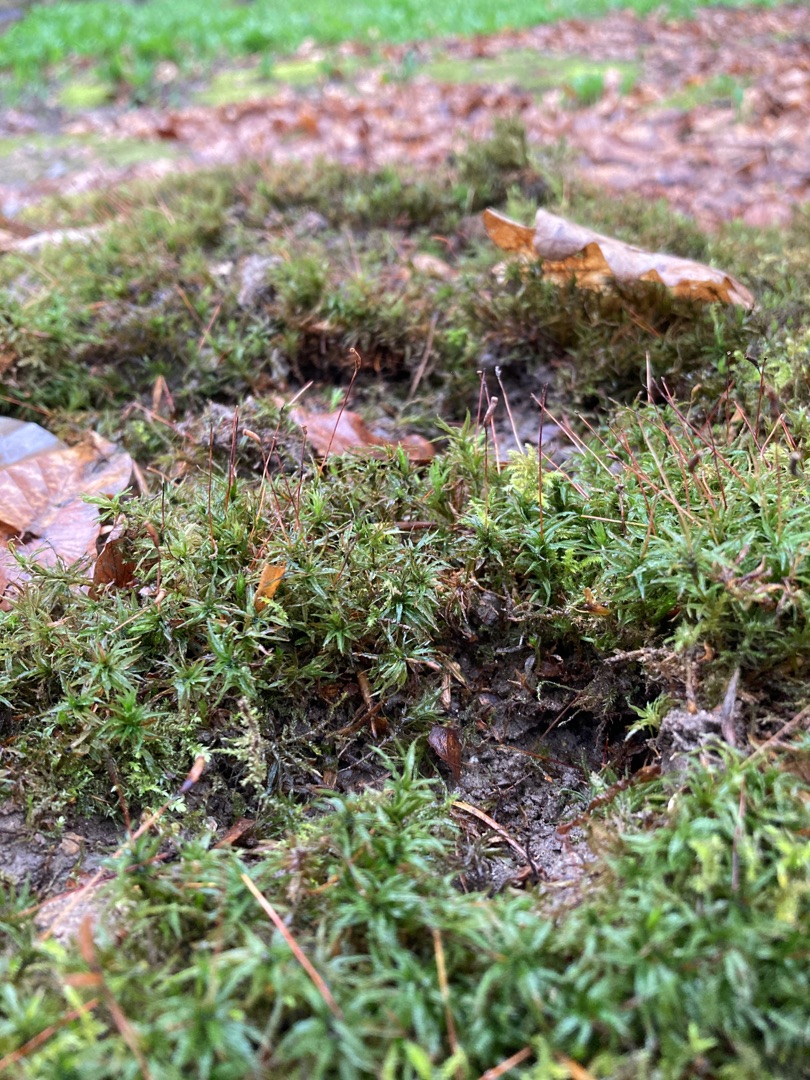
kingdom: Plantae
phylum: Bryophyta
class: Polytrichopsida
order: Polytrichales
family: Polytrichaceae
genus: Atrichum
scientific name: Atrichum undulatum
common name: Bølget katrinemos
